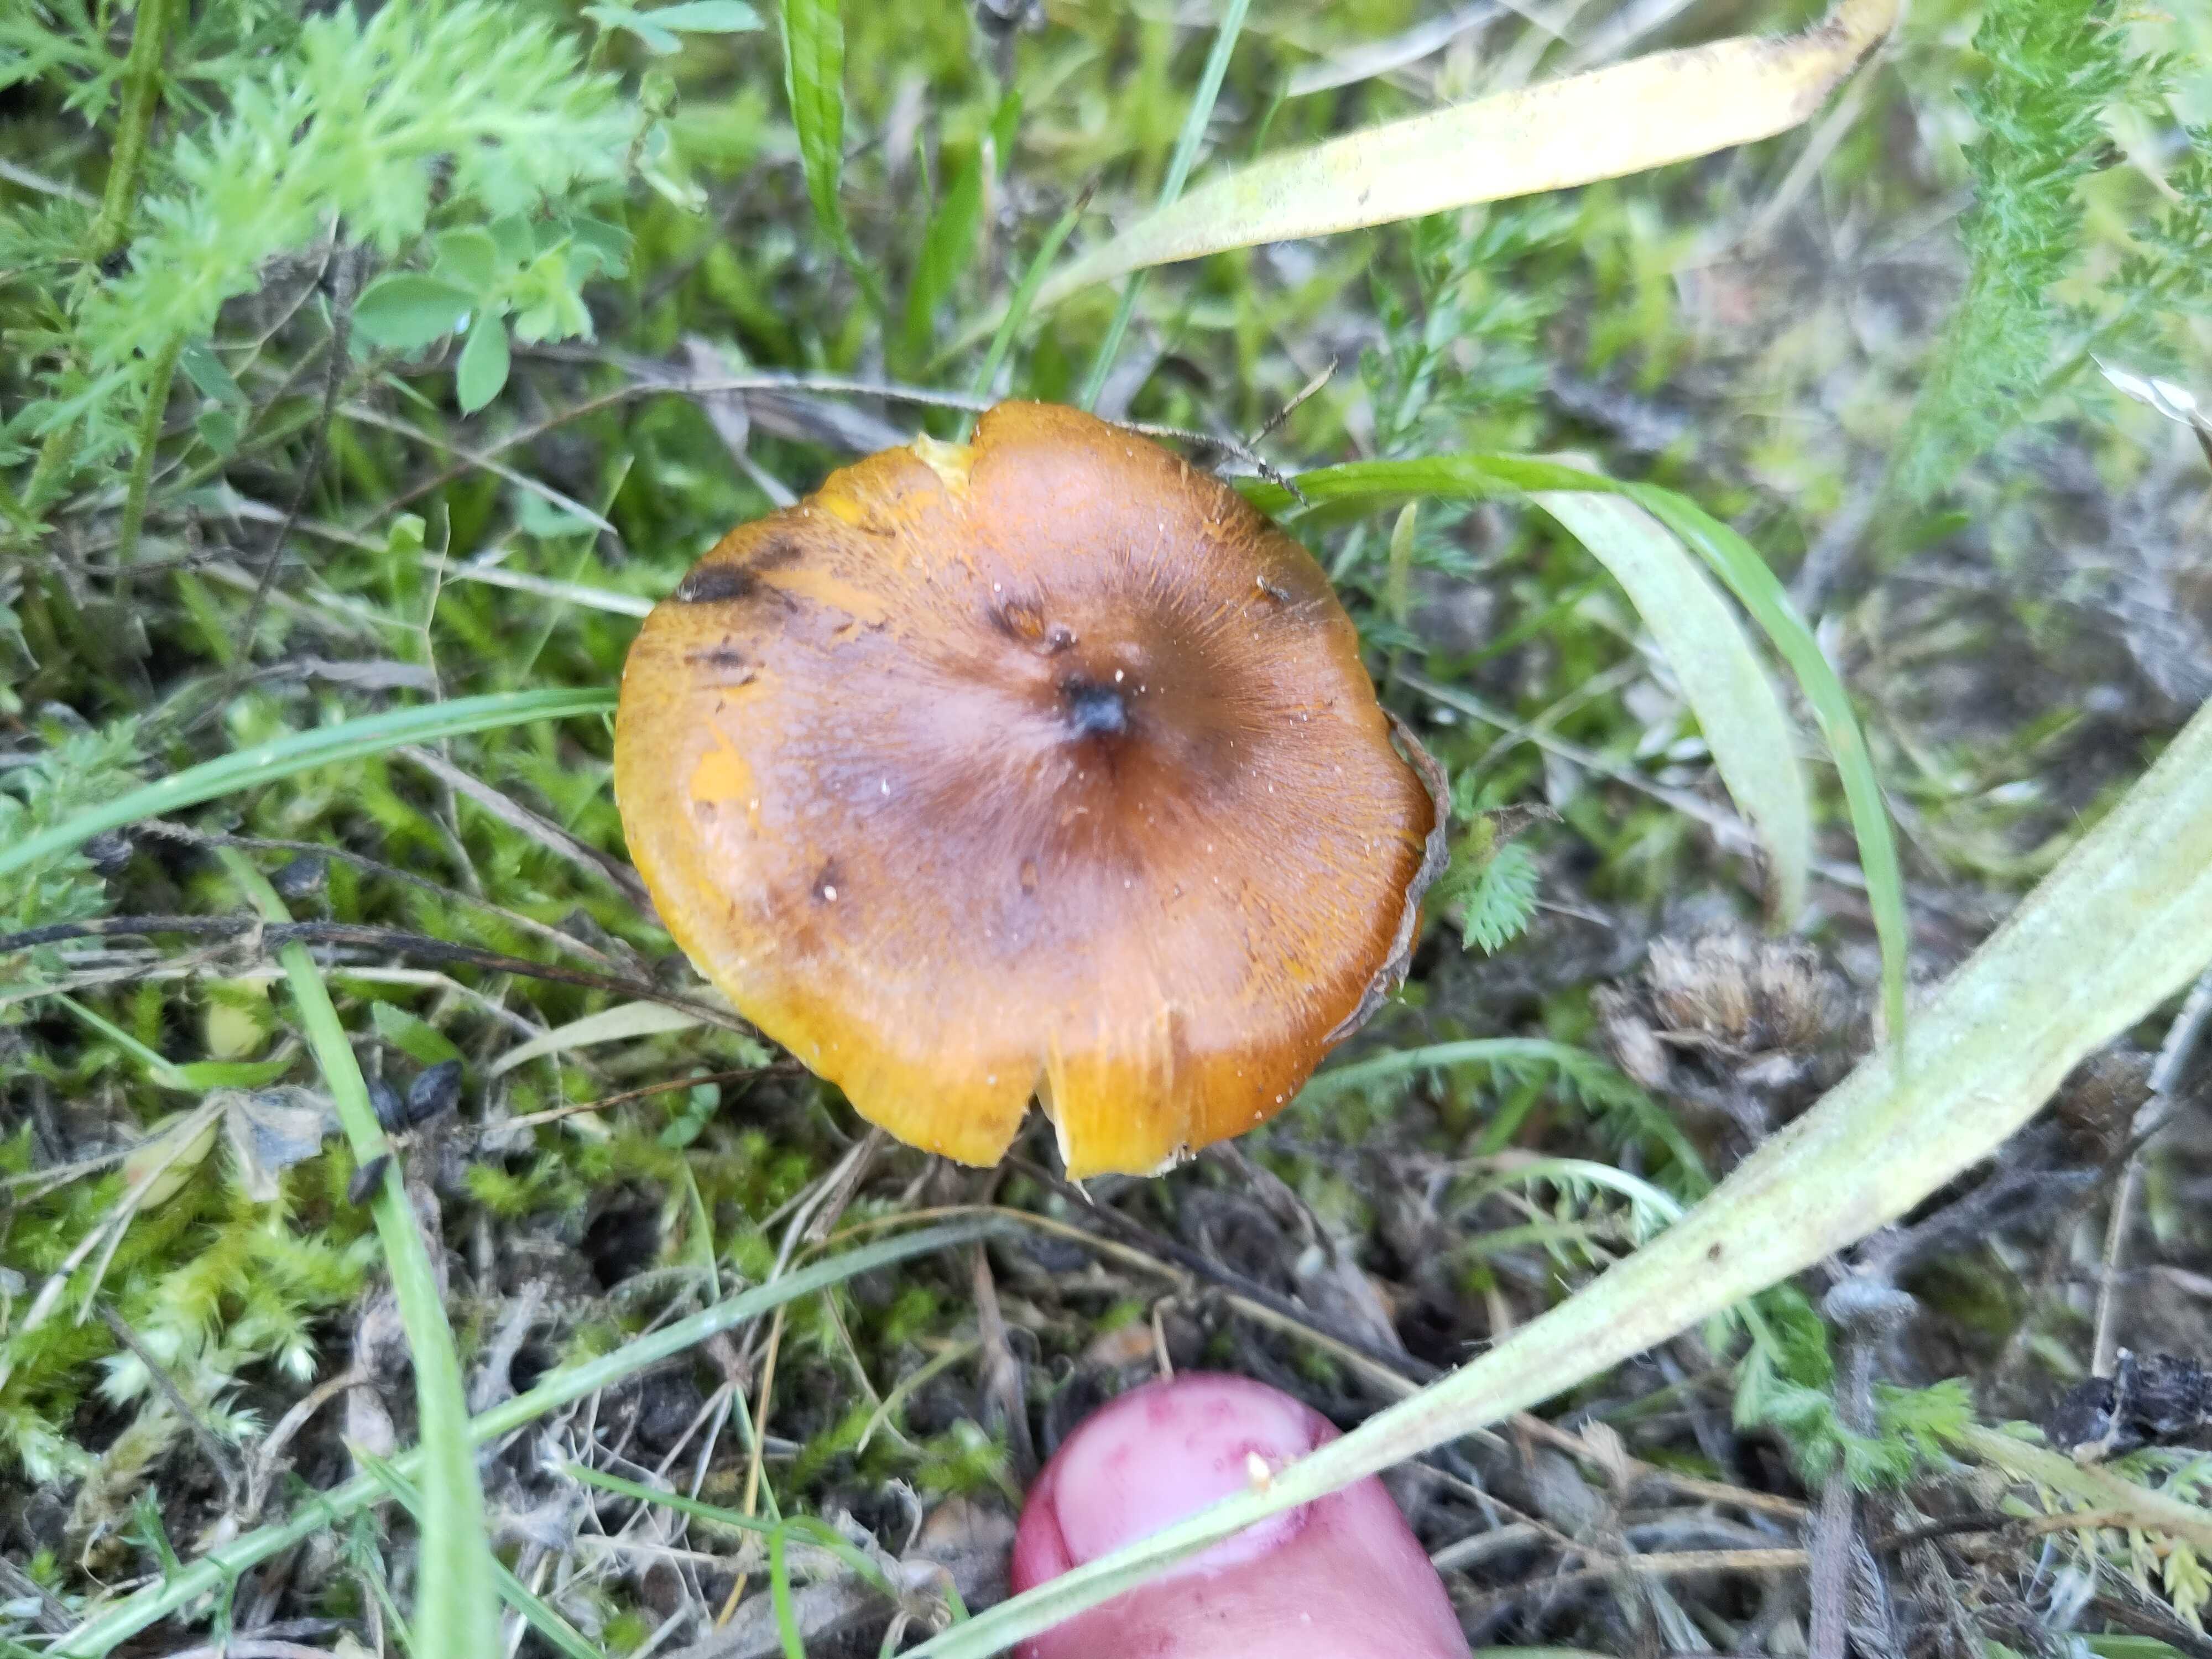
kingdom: Fungi
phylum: Basidiomycota
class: Agaricomycetes
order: Agaricales
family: Hygrophoraceae
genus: Hygrocybe
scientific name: Hygrocybe conica
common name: kegle-vokshat
